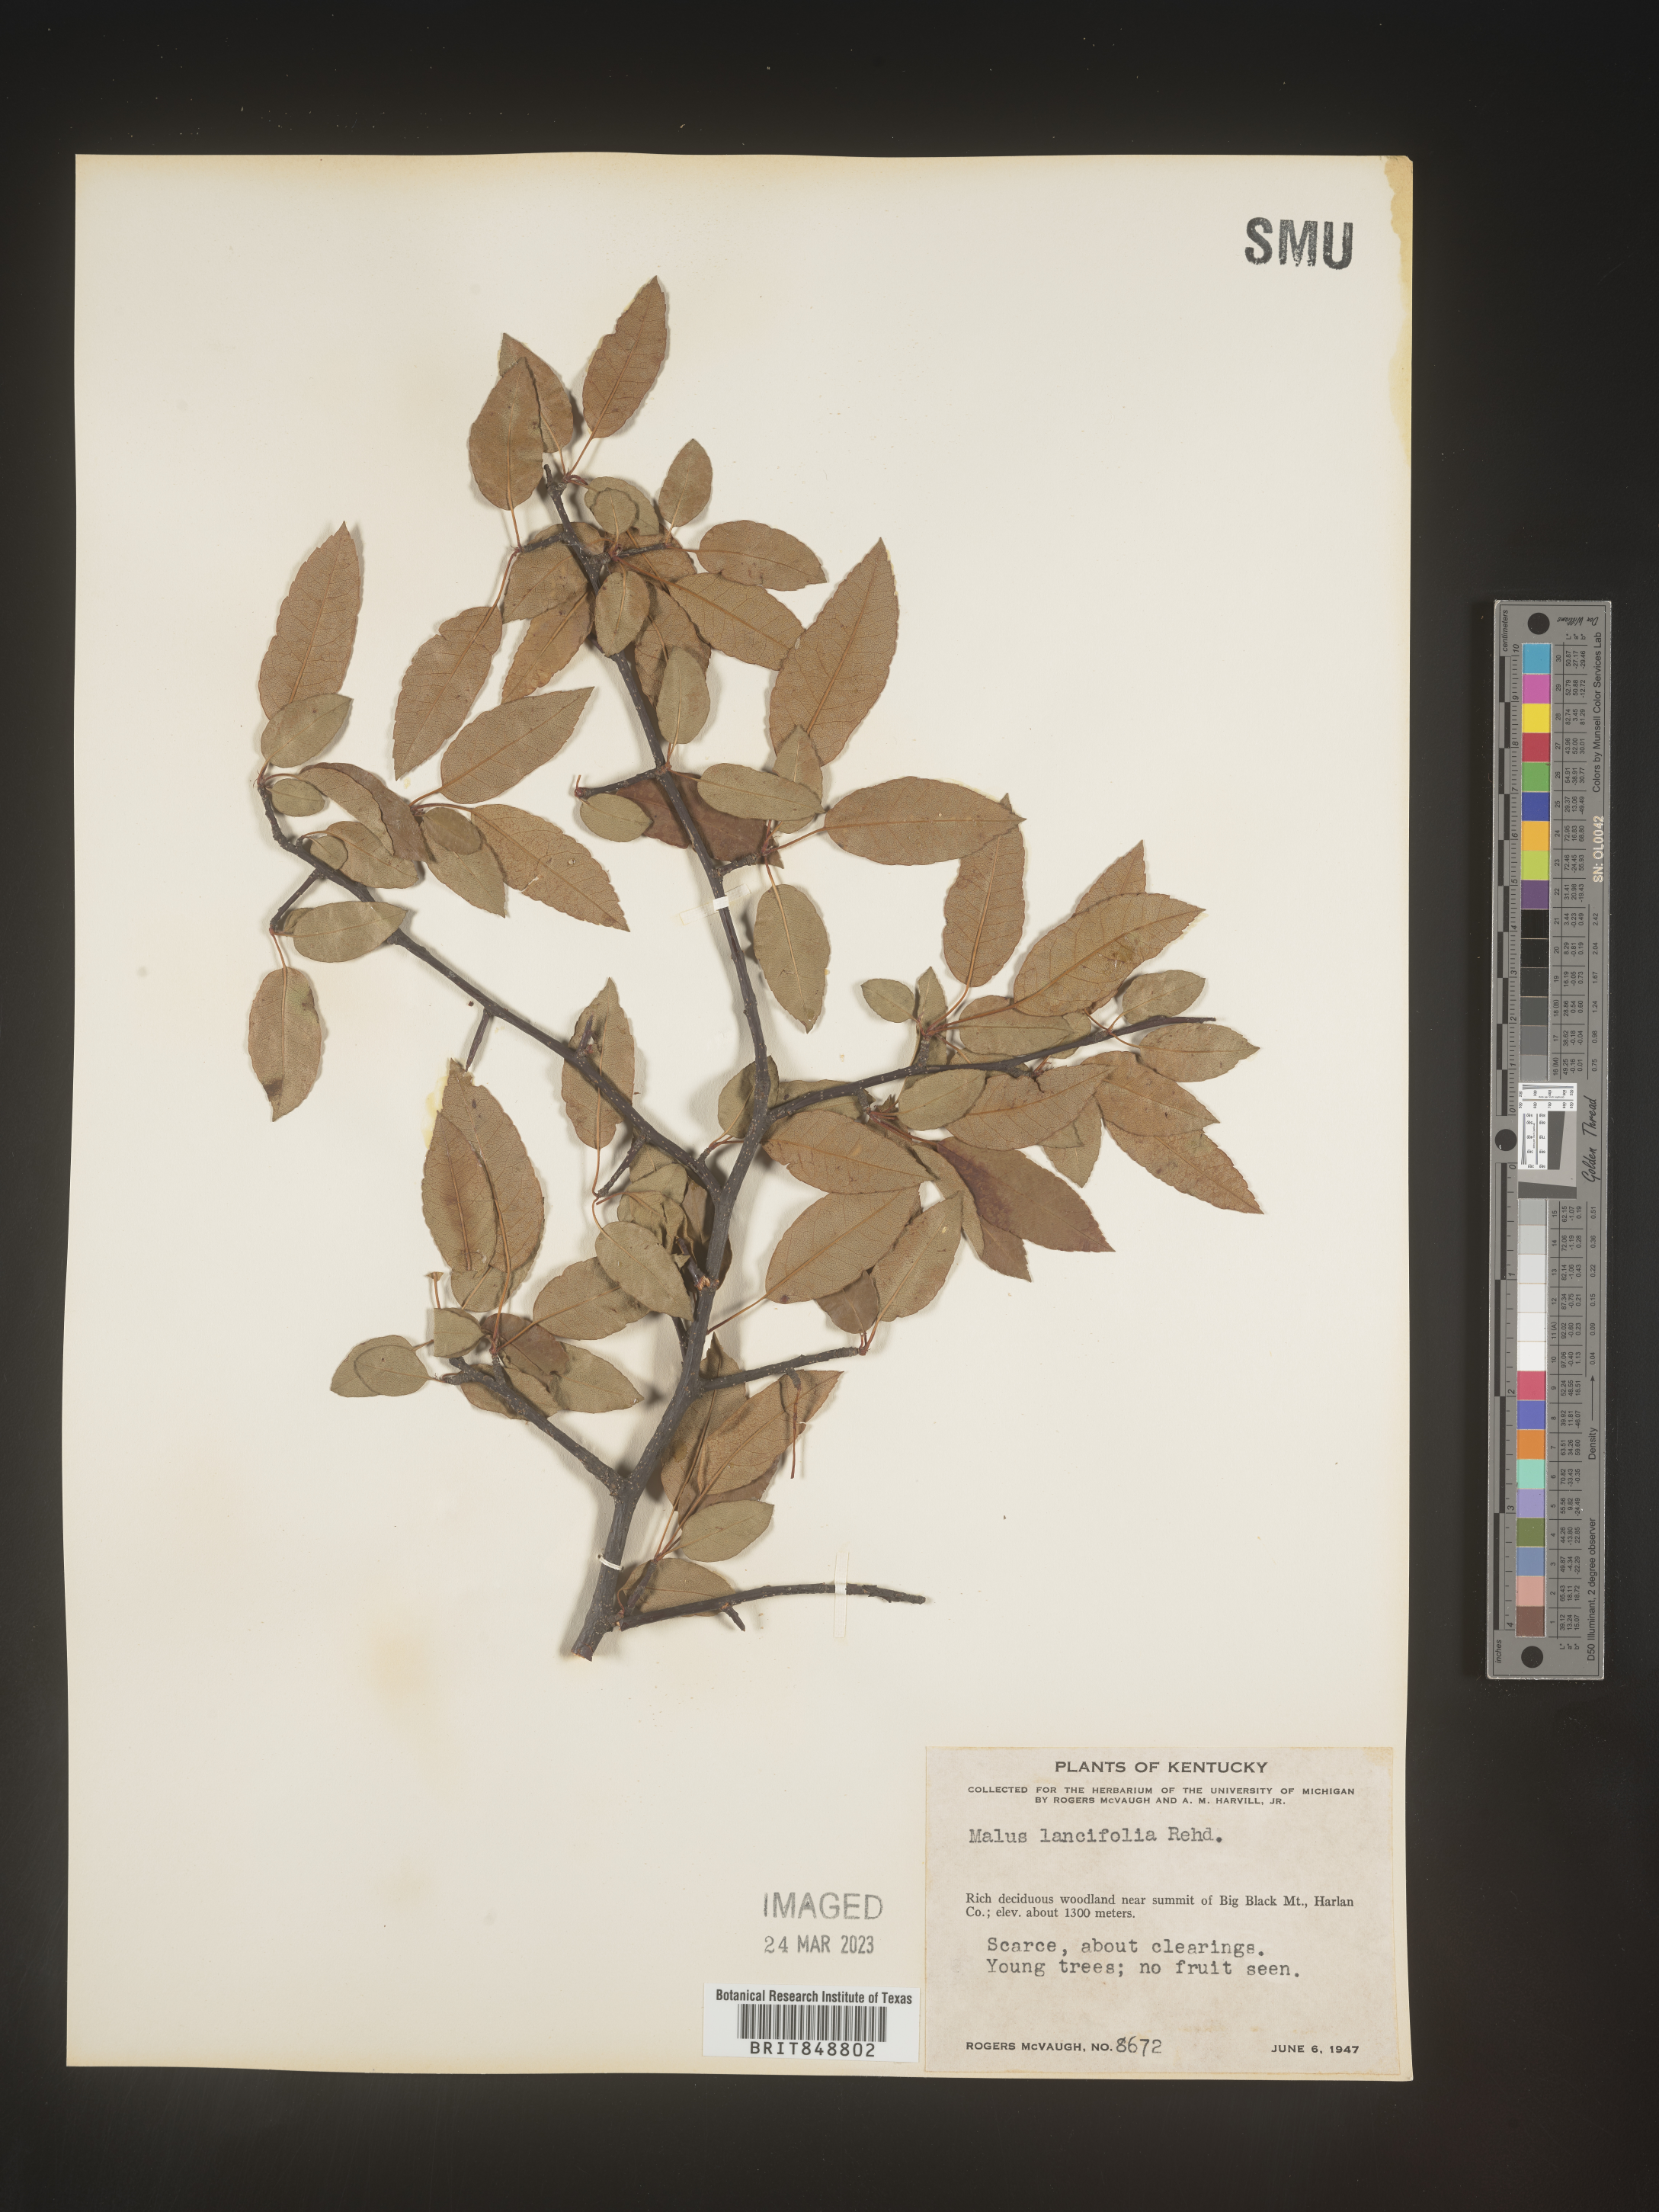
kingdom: Plantae
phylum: Tracheophyta
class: Magnoliopsida
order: Rosales
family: Rosaceae
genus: Malus
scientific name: Malus
